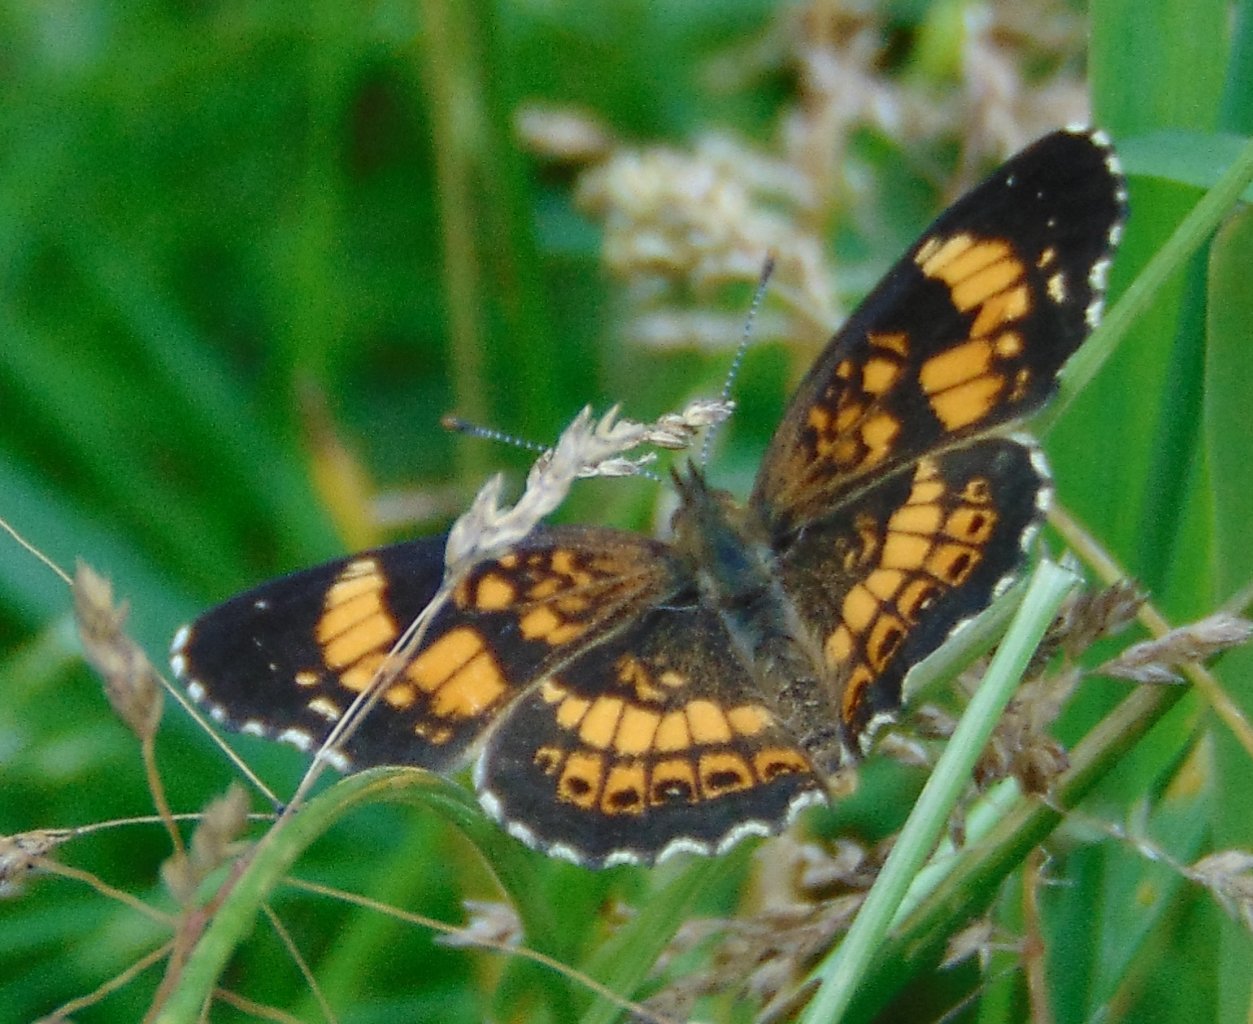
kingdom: Animalia
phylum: Arthropoda
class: Insecta
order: Lepidoptera
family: Nymphalidae
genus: Chlosyne
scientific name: Chlosyne nycteis
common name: Silvery Checkerspot
